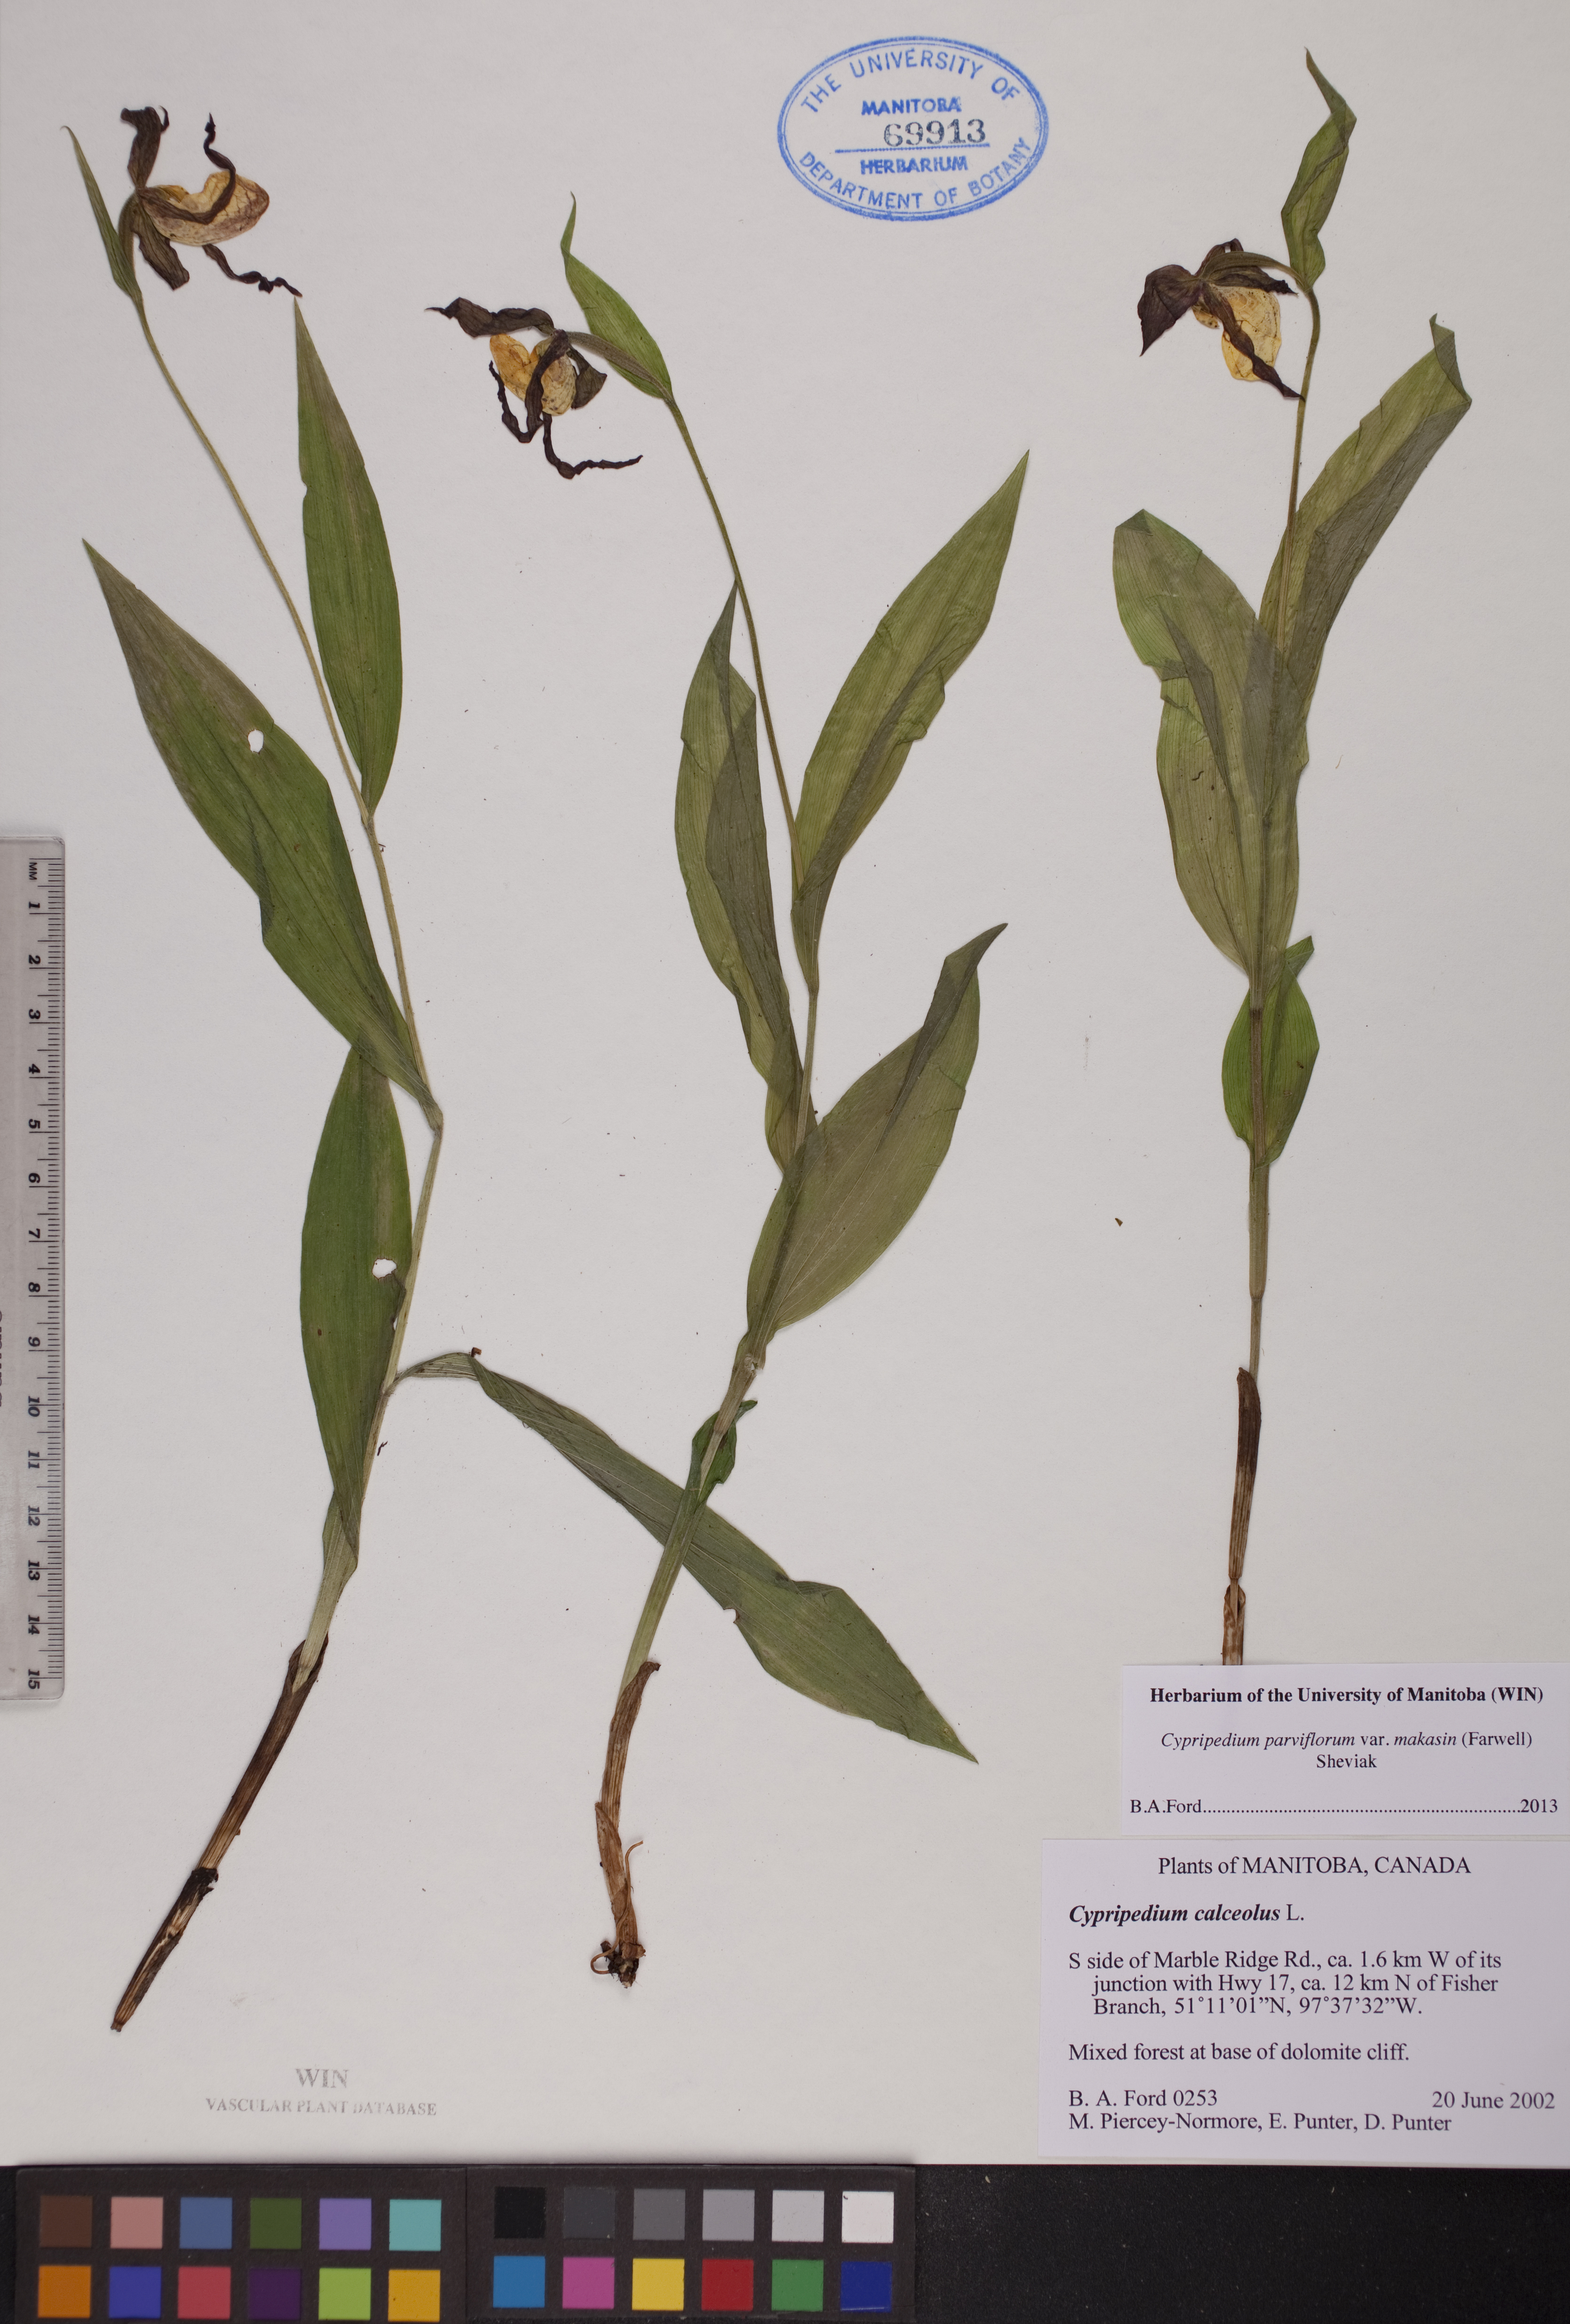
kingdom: Plantae
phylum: Tracheophyta
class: Liliopsida
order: Asparagales
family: Orchidaceae
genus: Cypripedium
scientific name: Cypripedium parviflorum
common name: American yellow lady's-slipper
